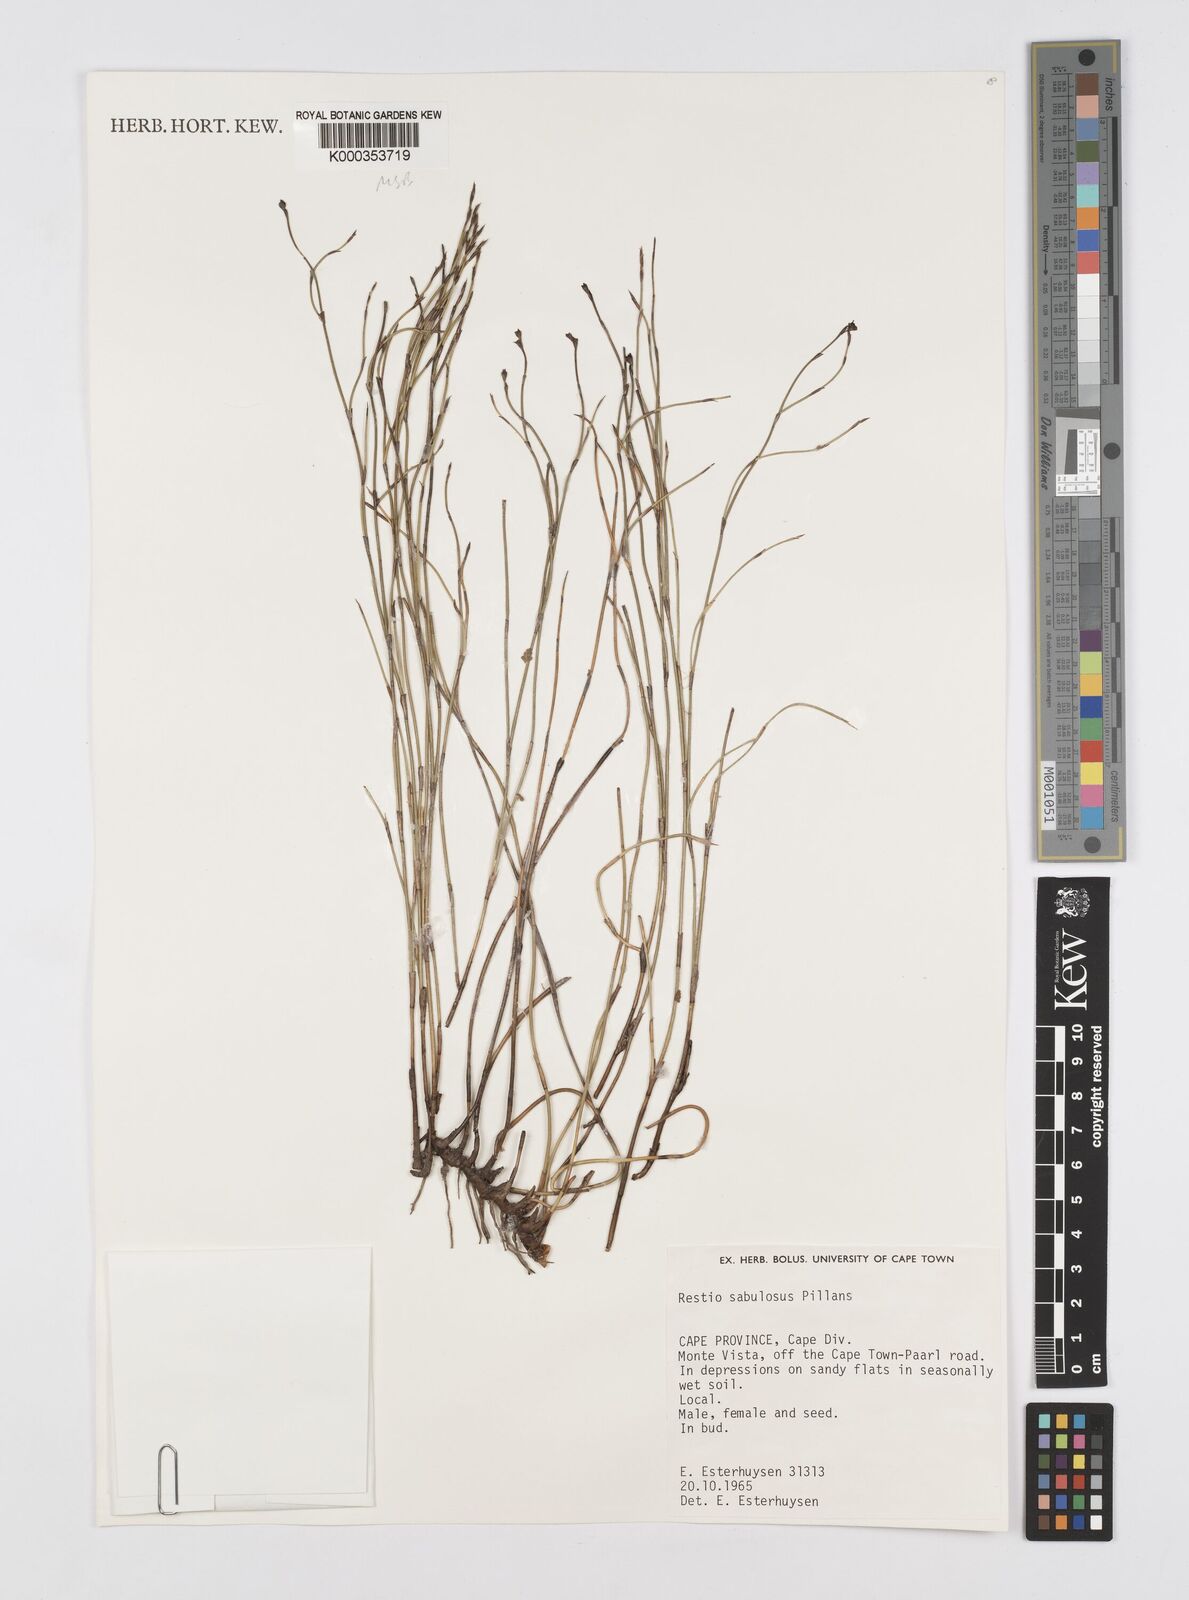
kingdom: Plantae
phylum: Tracheophyta
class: Liliopsida
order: Poales
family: Restionaceae
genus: Restio
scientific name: Restio sabulosus
